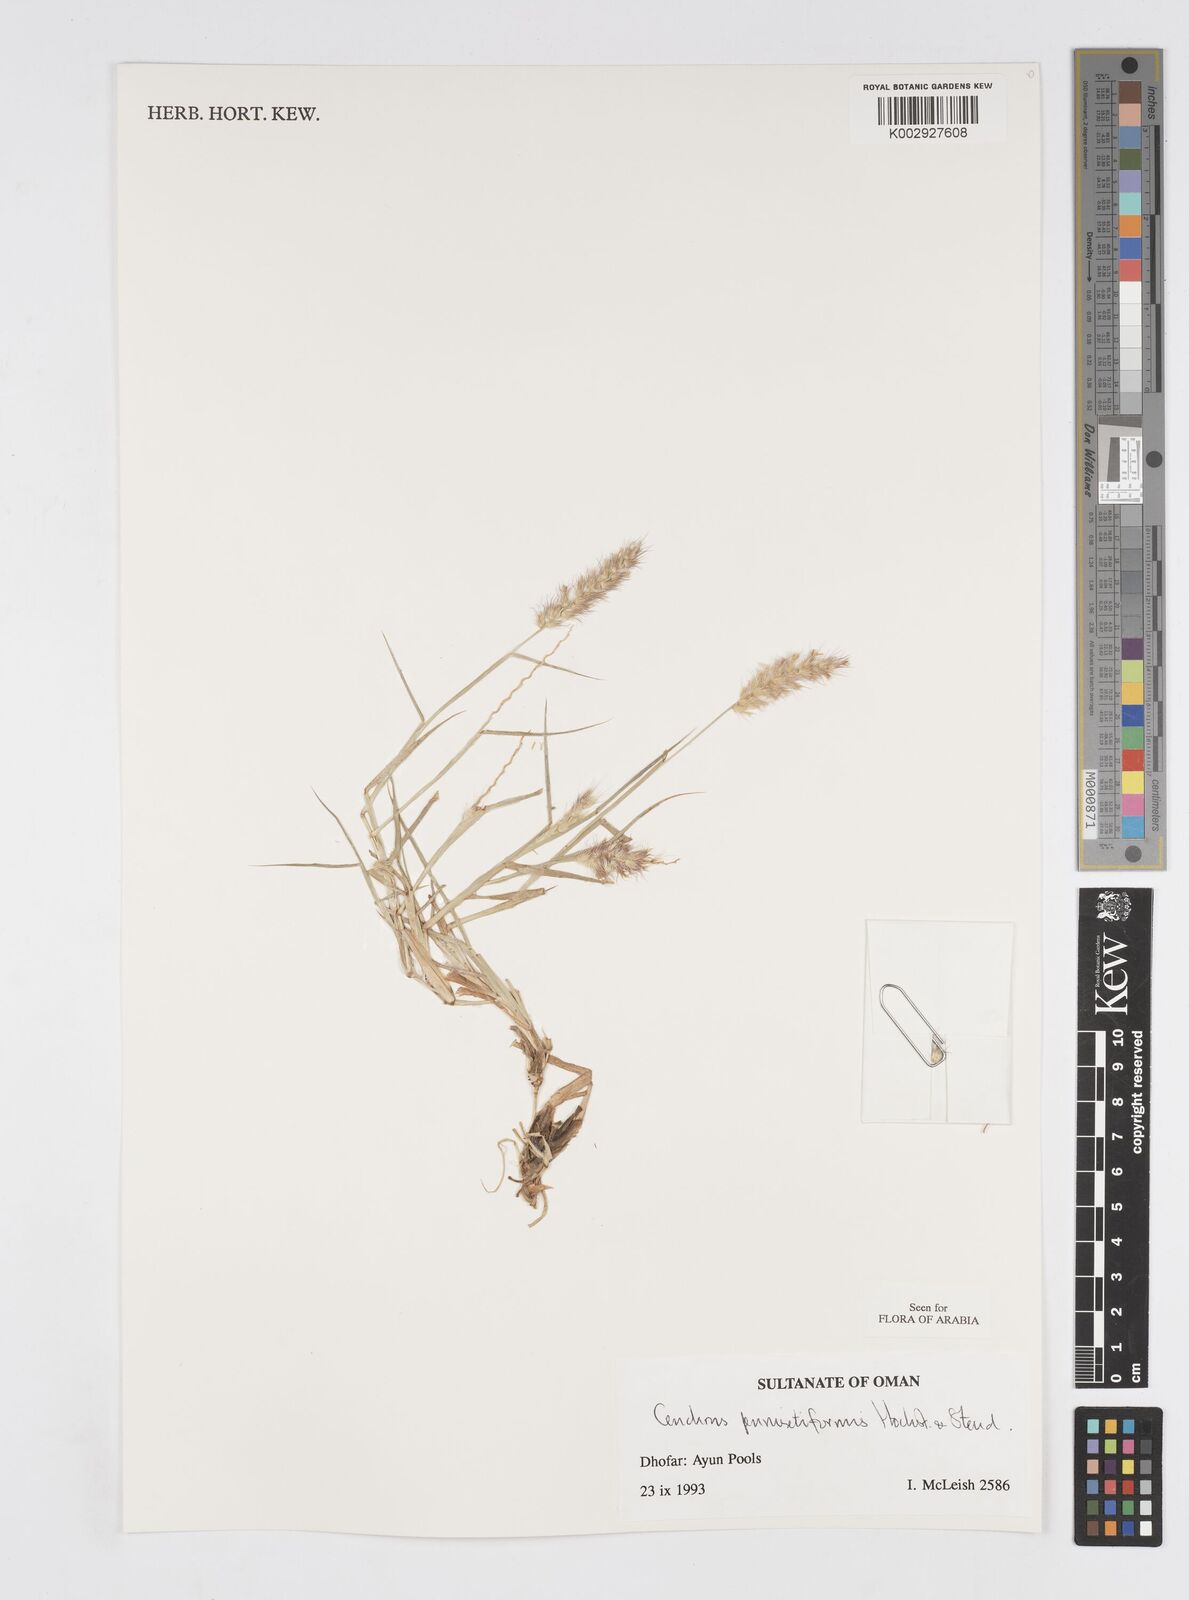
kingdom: Plantae
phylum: Tracheophyta
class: Liliopsida
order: Poales
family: Poaceae
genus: Cenchrus
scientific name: Cenchrus pennisetiformis
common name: Cloncurry
